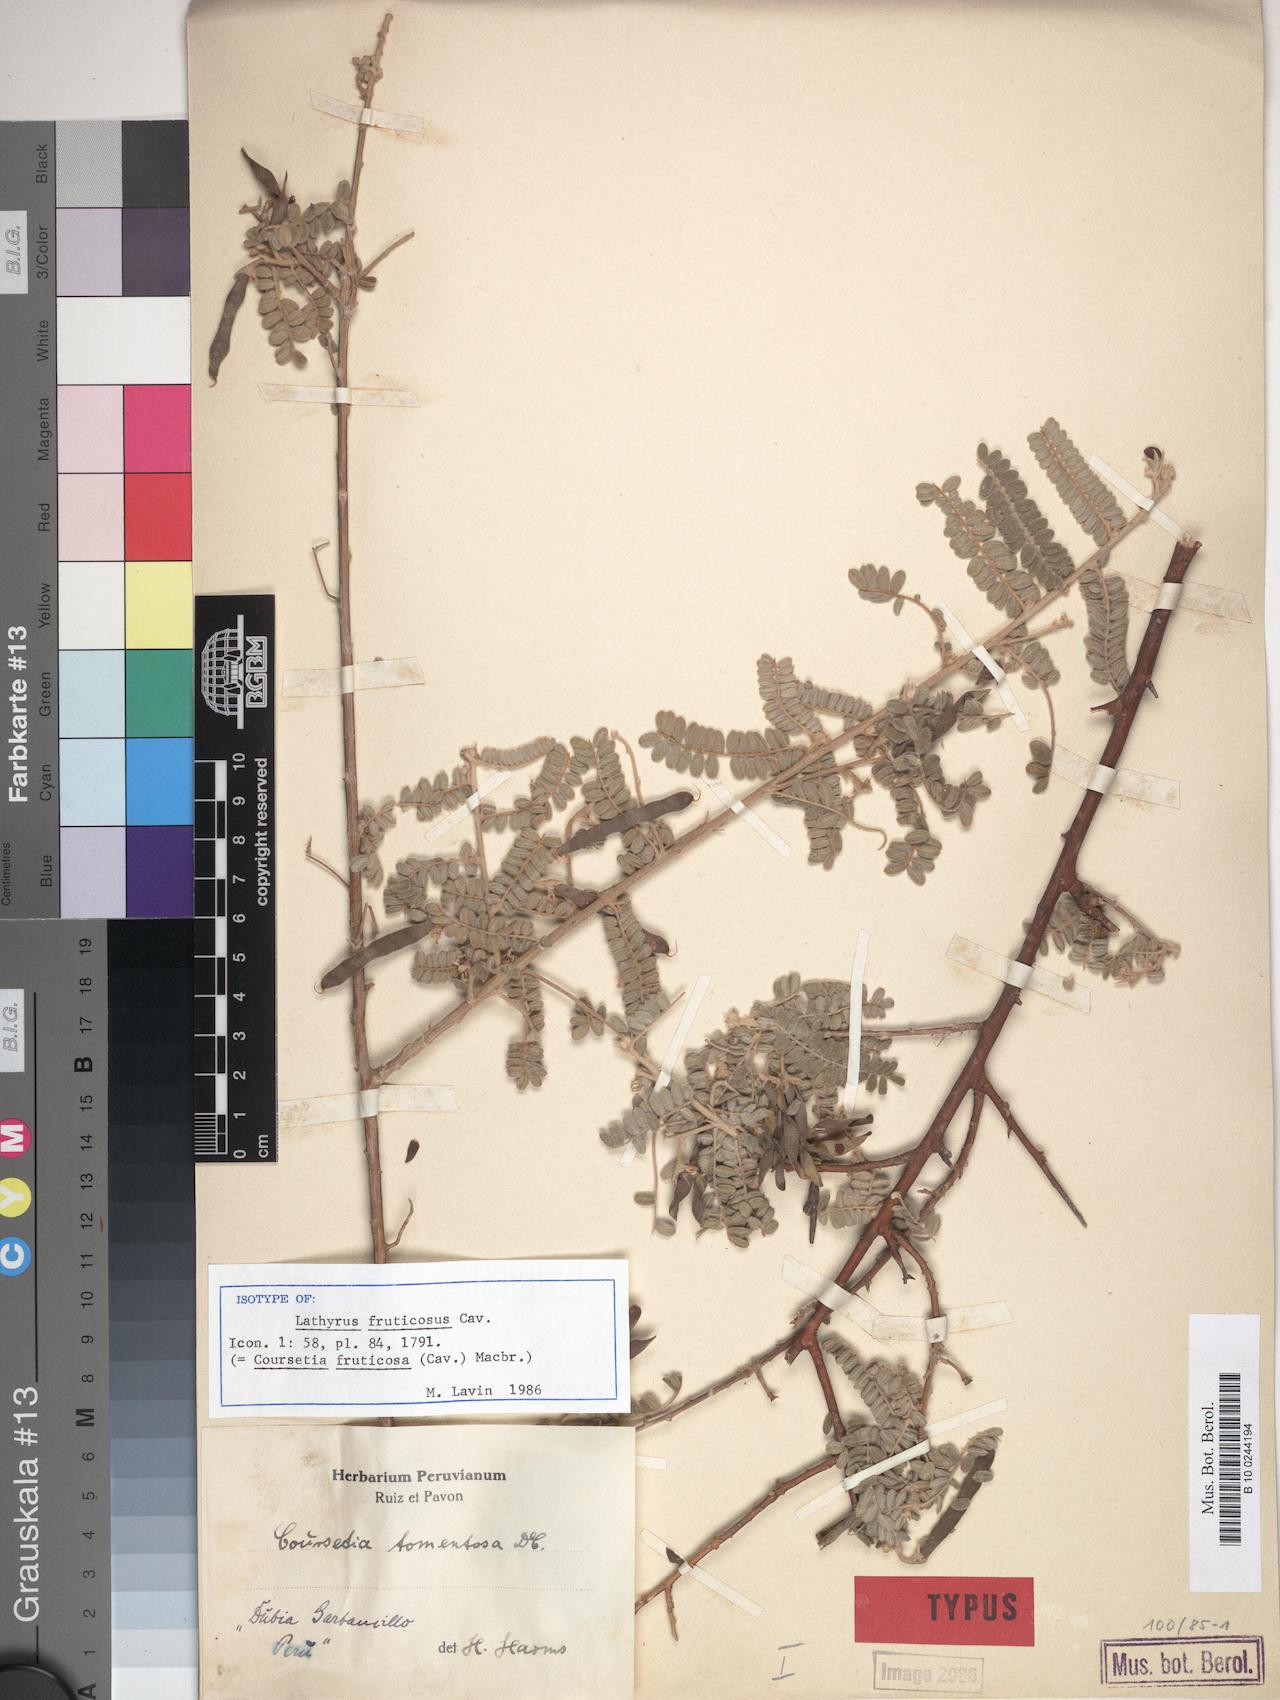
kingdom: Plantae
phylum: Tracheophyta
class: Magnoliopsida
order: Fabales
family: Fabaceae
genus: Coursetia
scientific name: Coursetia fruticosa
